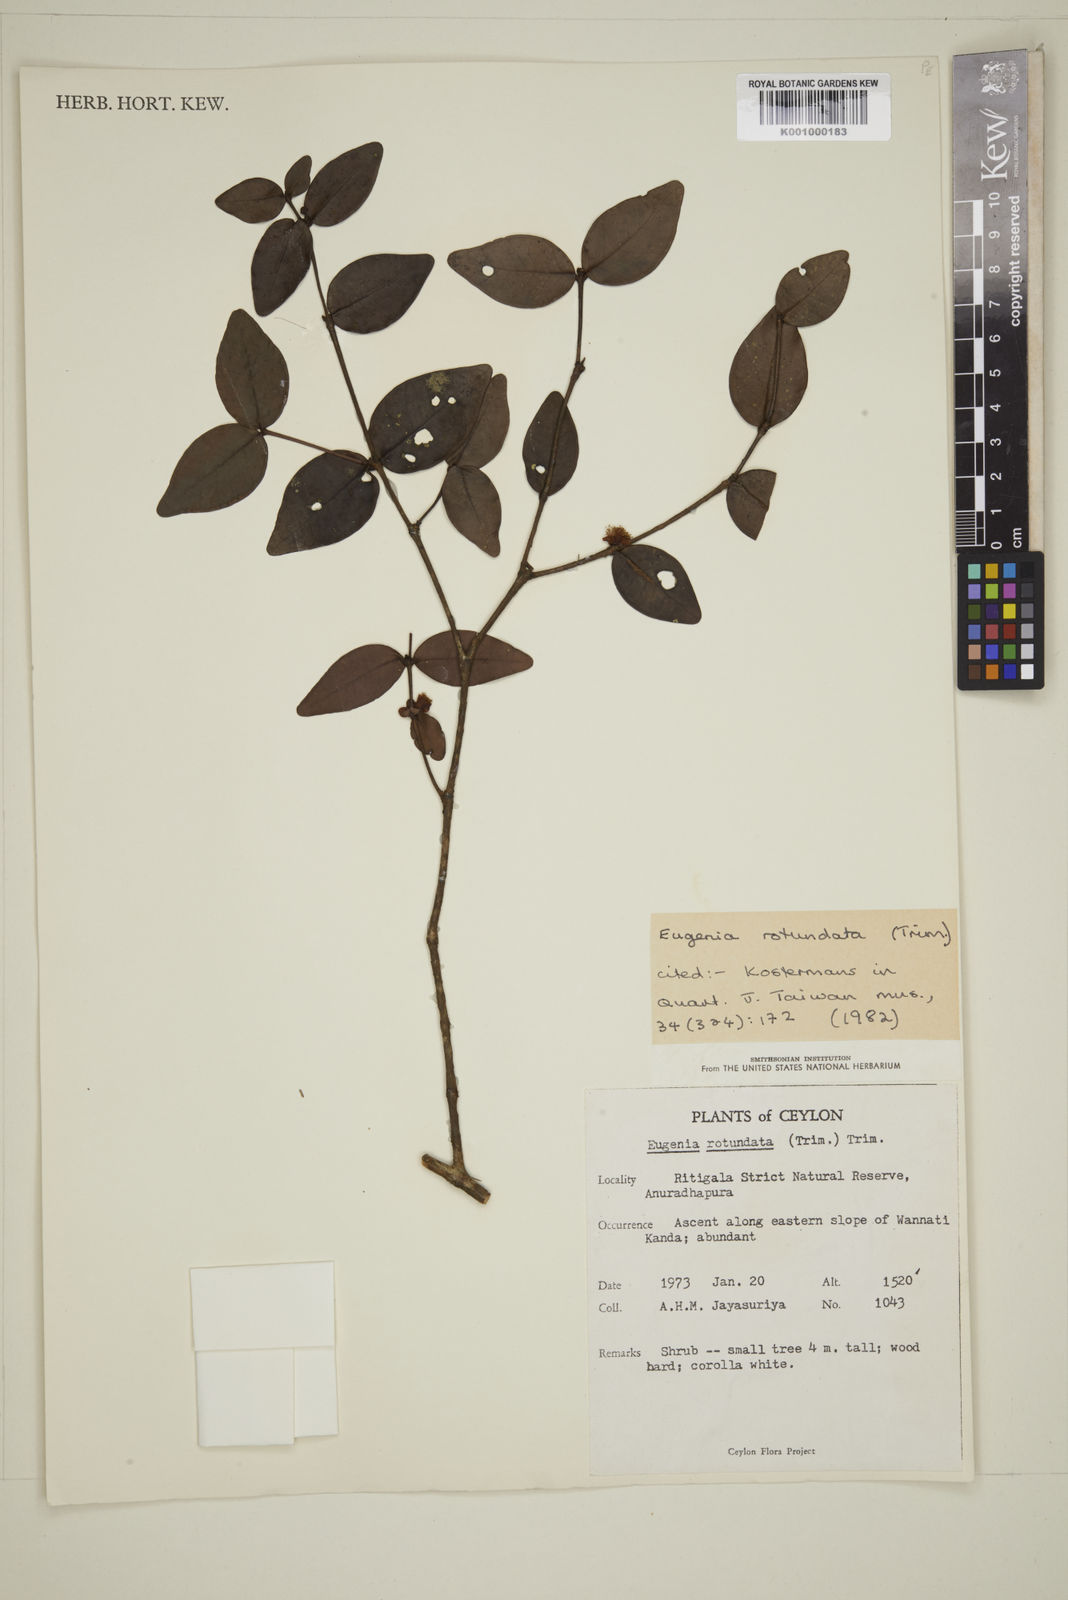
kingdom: Plantae
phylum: Tracheophyta
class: Magnoliopsida
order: Myrtales
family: Myrtaceae
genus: Eugenia
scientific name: Eugenia rotundata
